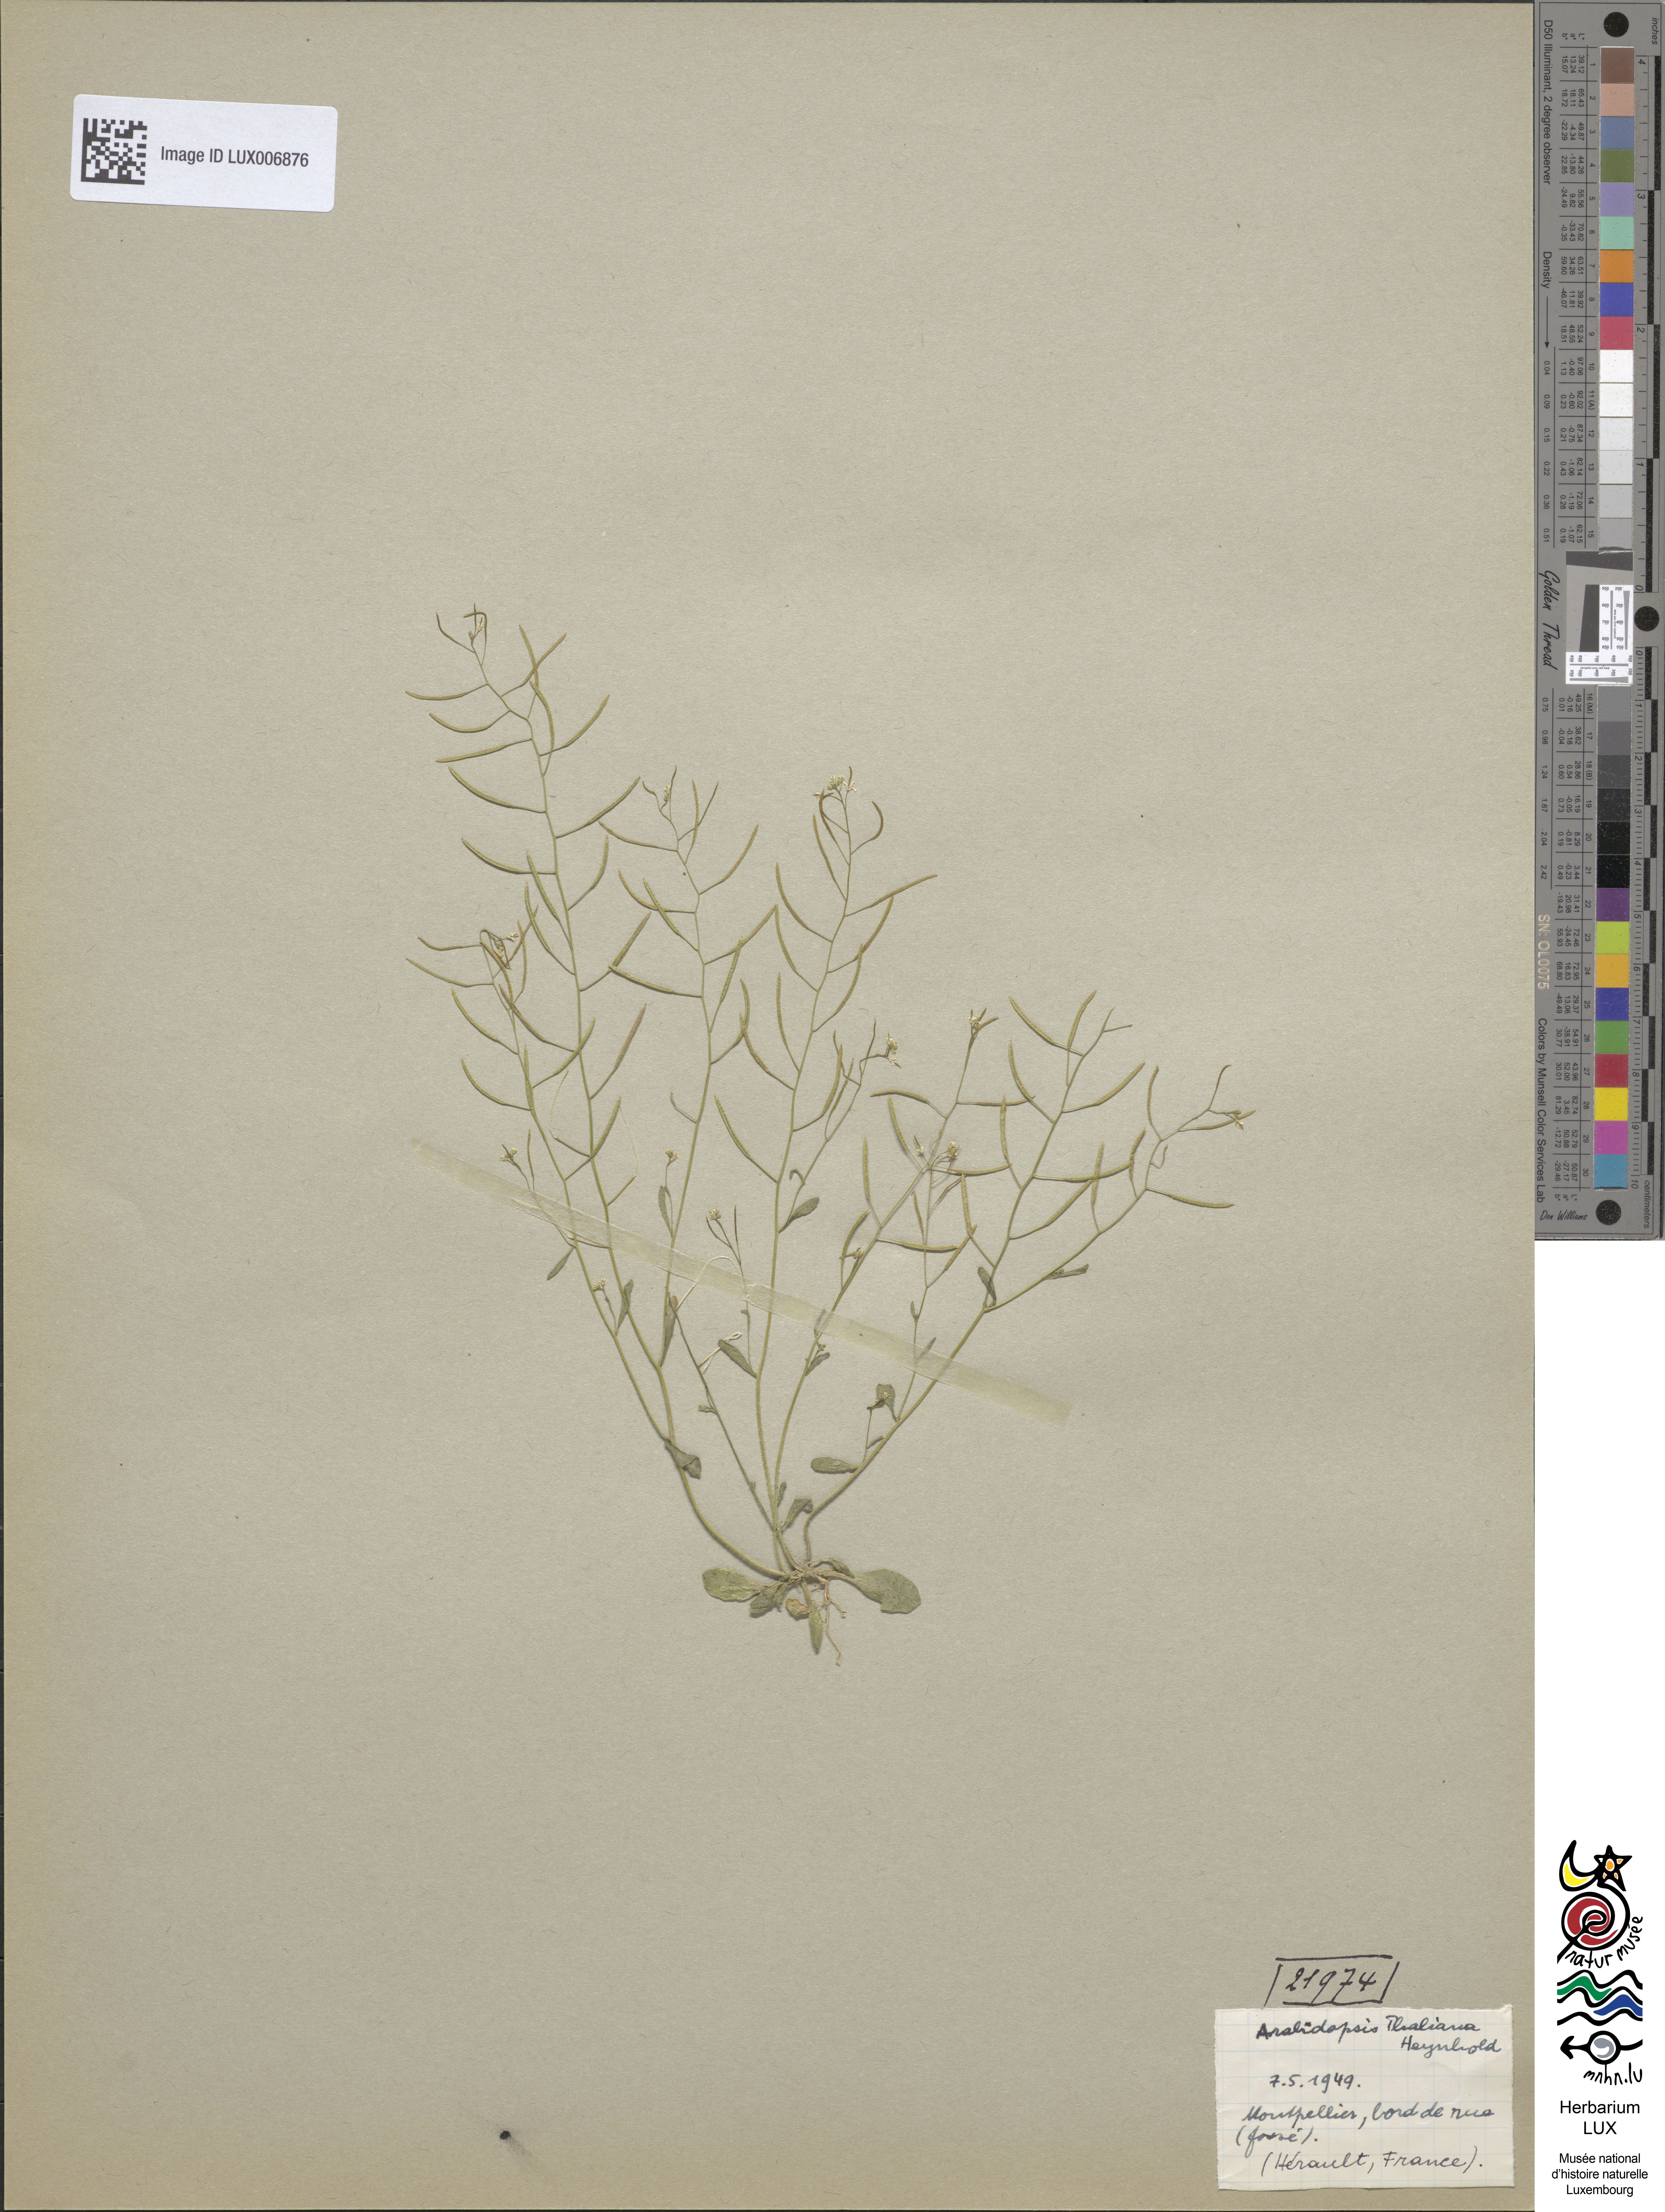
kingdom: Plantae
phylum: Tracheophyta
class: Magnoliopsida
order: Brassicales
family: Brassicaceae
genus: Arabidopsis
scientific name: Arabidopsis thaliana
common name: Thale cress
